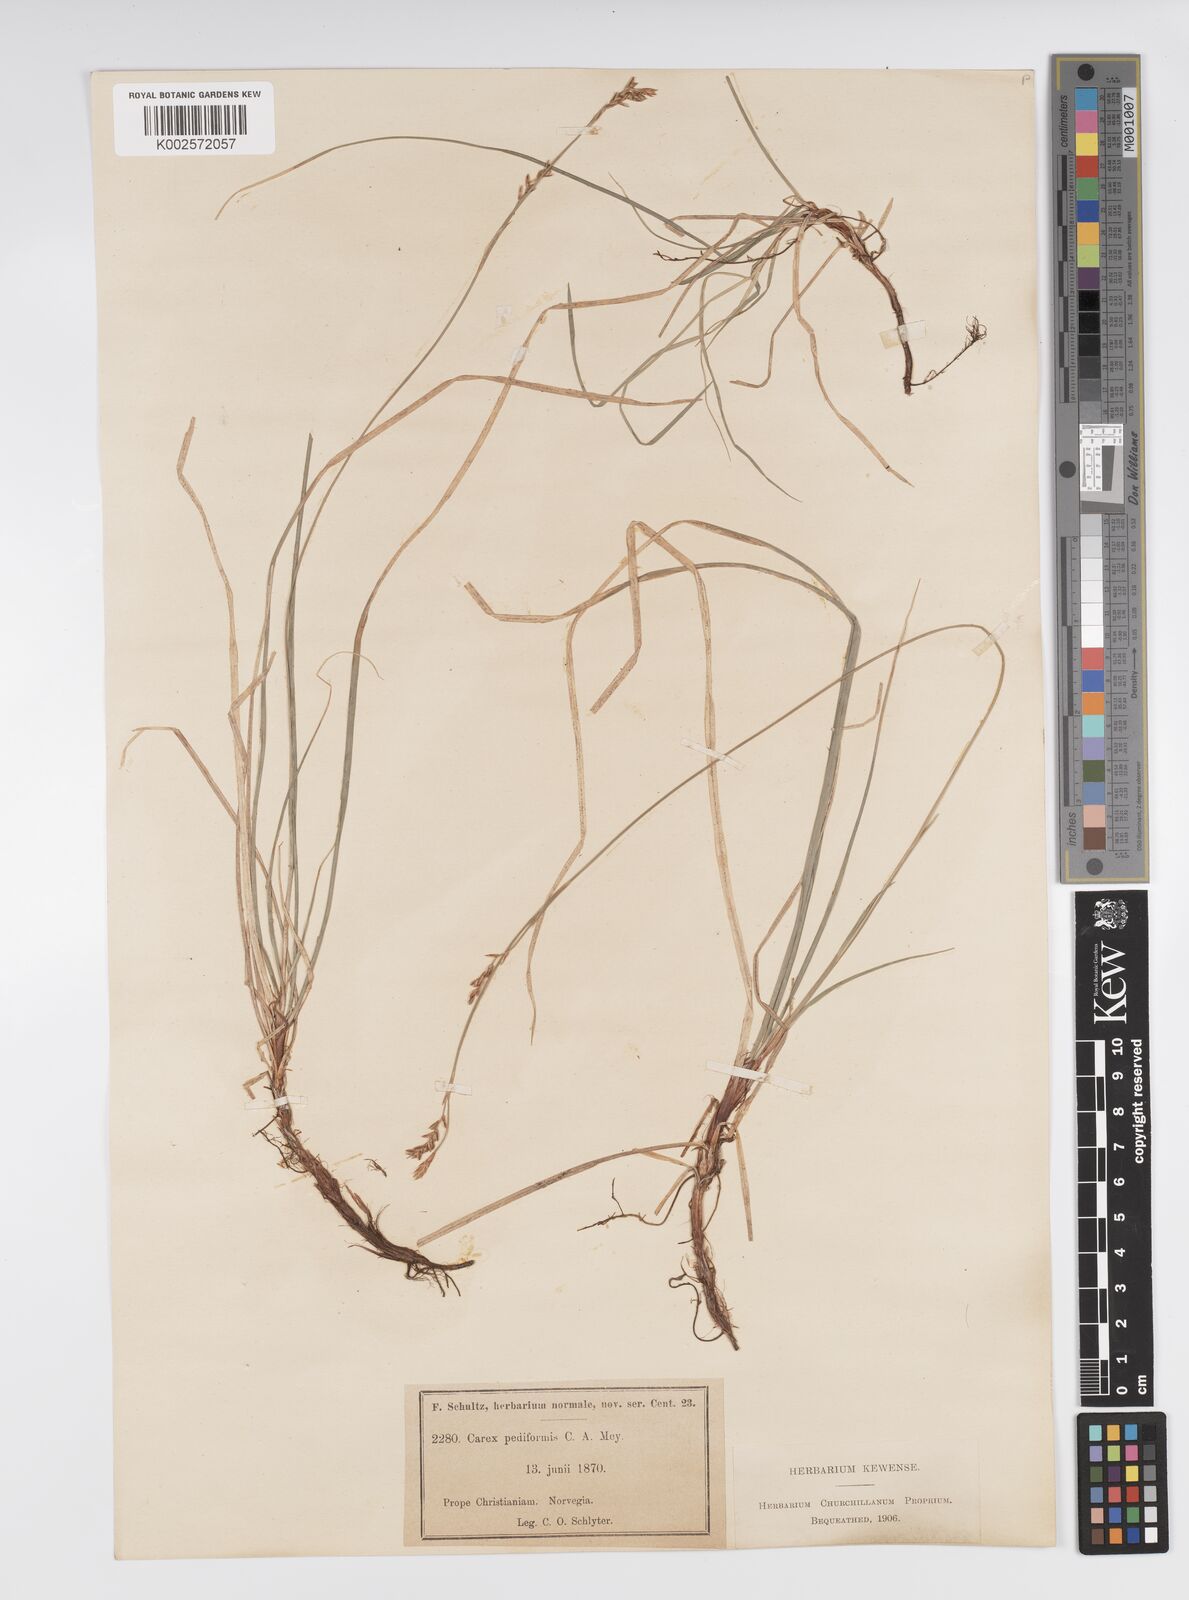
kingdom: Plantae
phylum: Tracheophyta
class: Liliopsida
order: Poales
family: Cyperaceae
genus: Carex
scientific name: Carex pediformis
